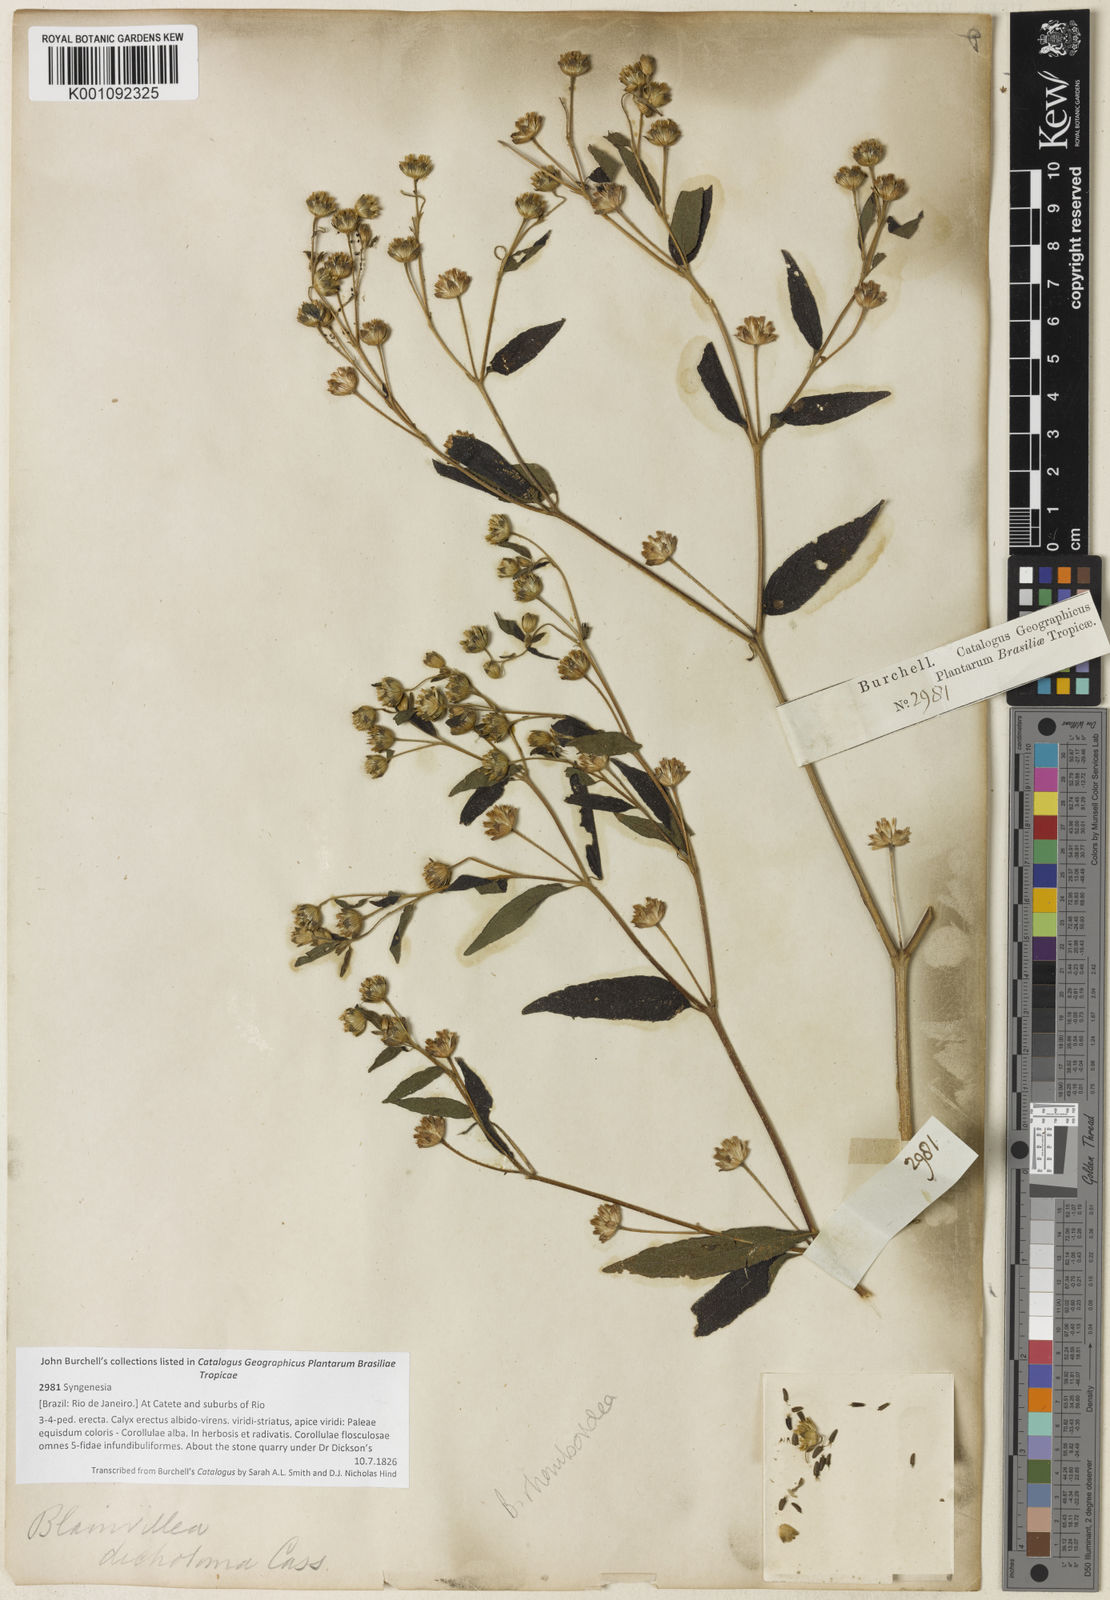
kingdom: Plantae
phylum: Tracheophyta
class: Magnoliopsida
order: Asterales
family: Asteraceae
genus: Blainvillea
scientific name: Blainvillea
